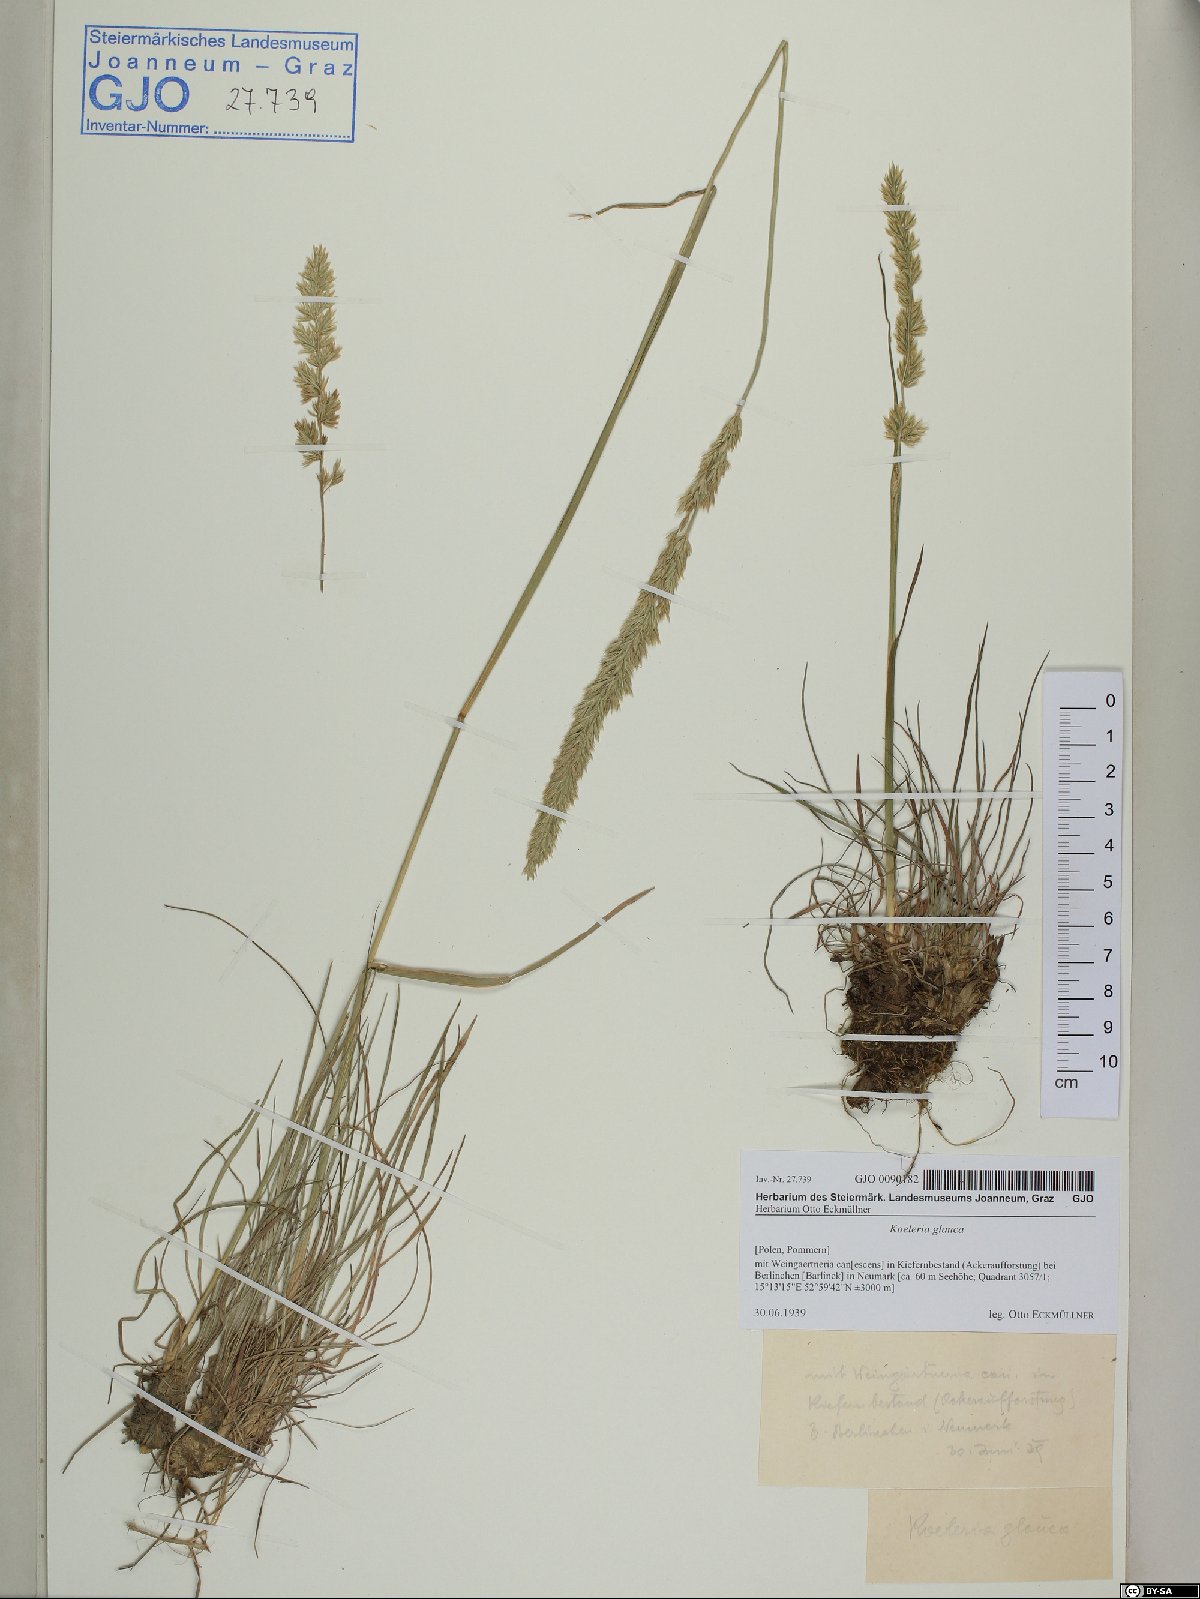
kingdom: Plantae
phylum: Tracheophyta
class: Liliopsida
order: Poales
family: Poaceae
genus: Koeleria
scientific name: Koeleria glauca
